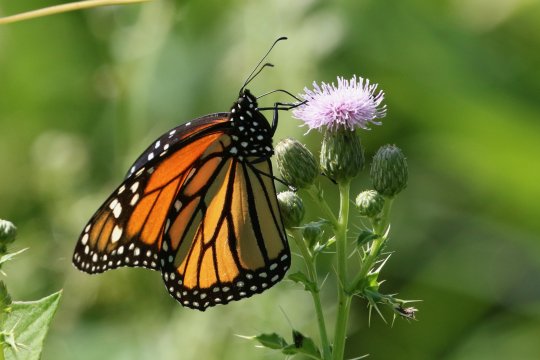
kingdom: Animalia
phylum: Arthropoda
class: Insecta
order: Lepidoptera
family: Nymphalidae
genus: Danaus
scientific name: Danaus plexippus
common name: Monarch
